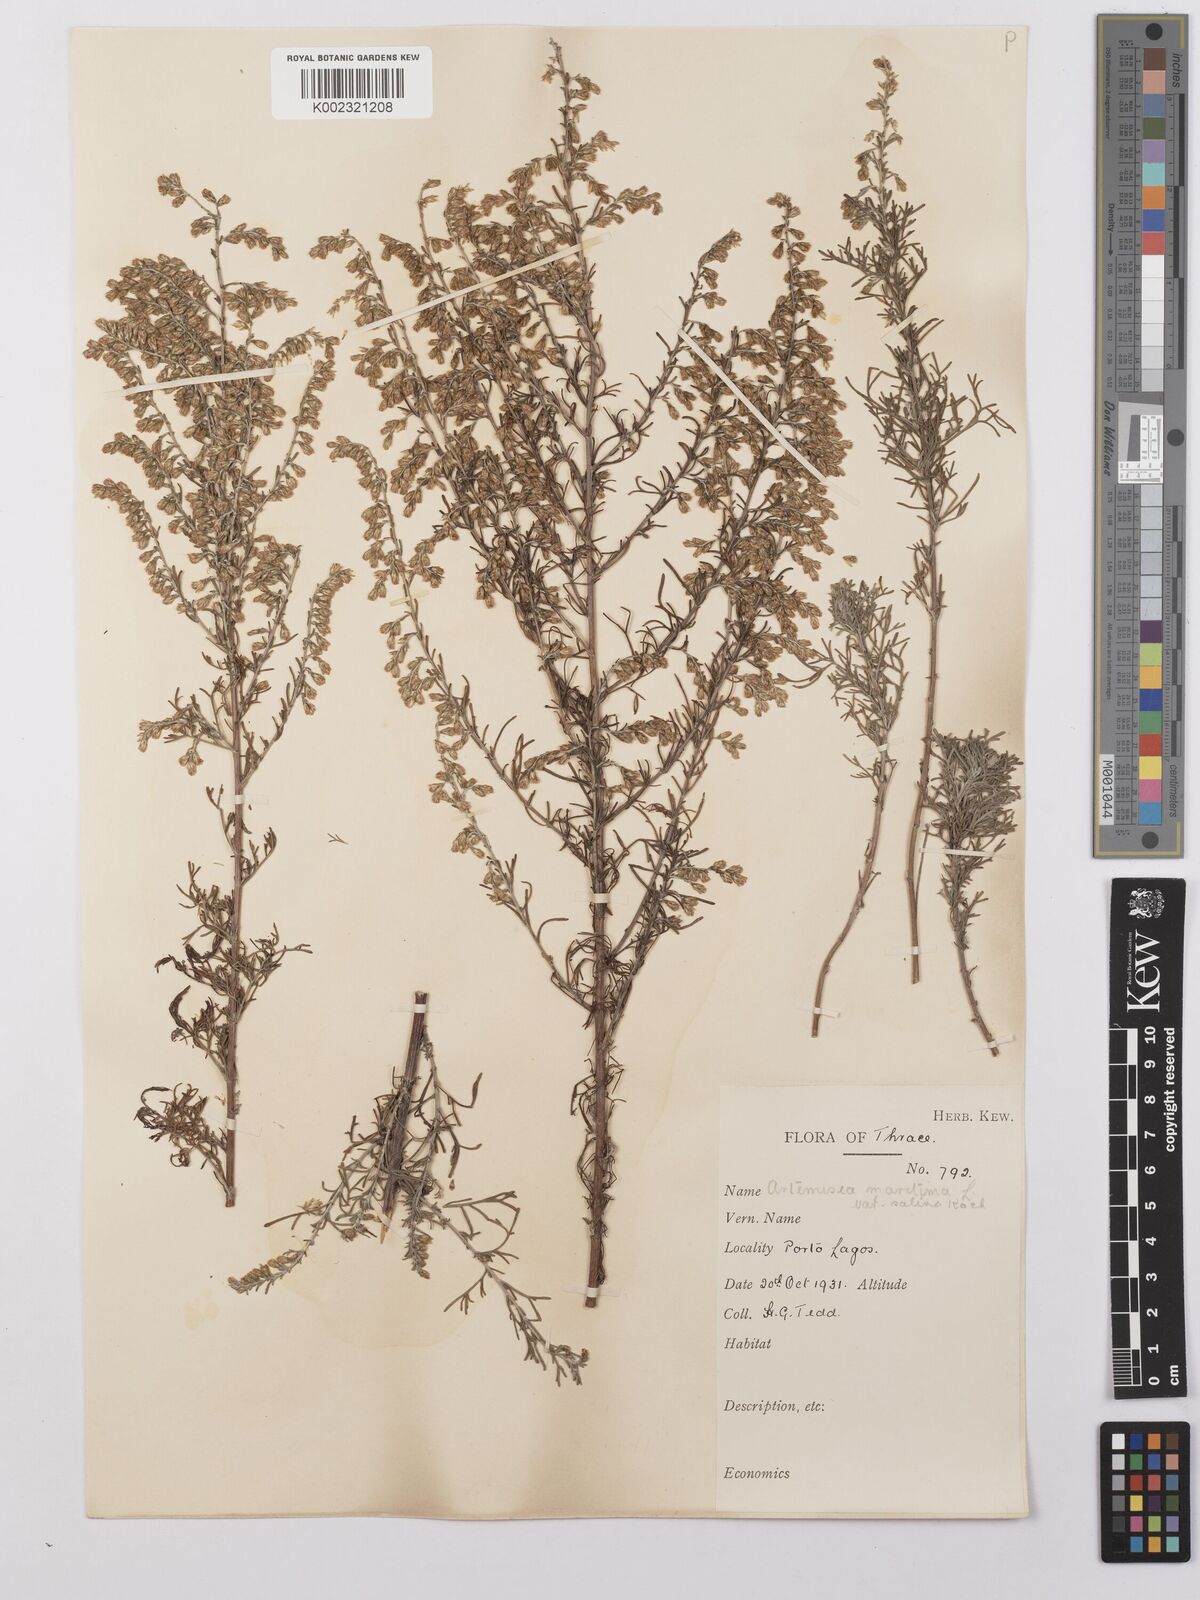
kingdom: Plantae
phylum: Tracheophyta
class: Magnoliopsida
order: Asterales
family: Asteraceae
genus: Artemisia
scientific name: Artemisia maritima
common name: Wormseed
